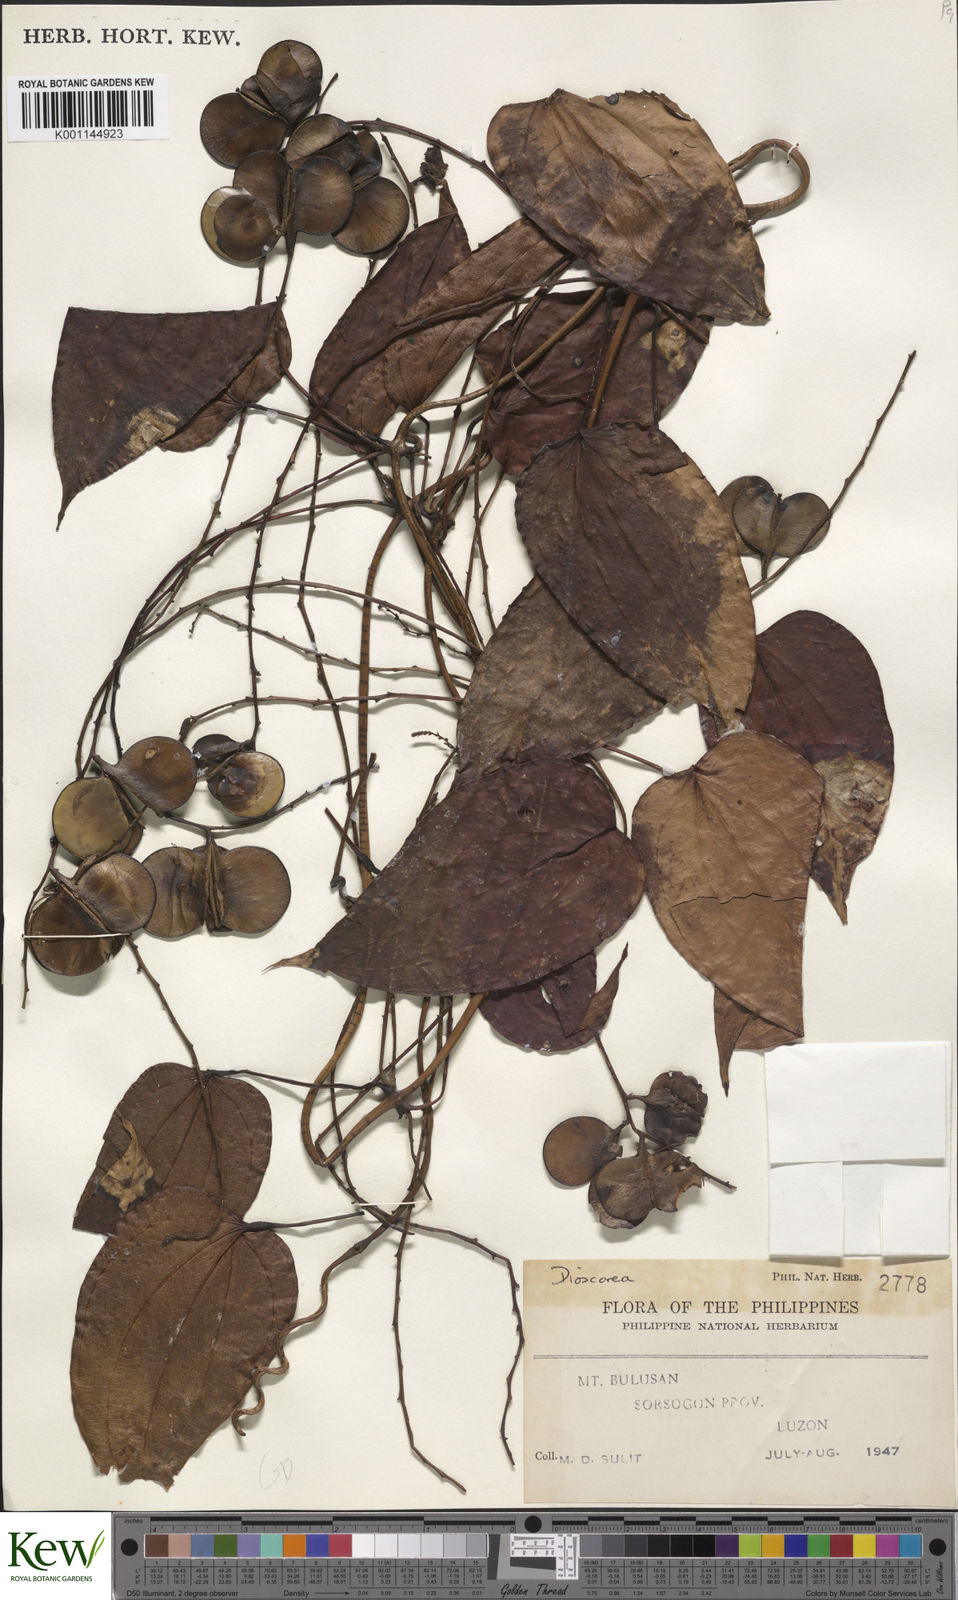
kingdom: Plantae
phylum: Tracheophyta
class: Liliopsida
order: Dioscoreales
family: Dioscoreaceae
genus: Dioscorea
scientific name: Dioscorea
